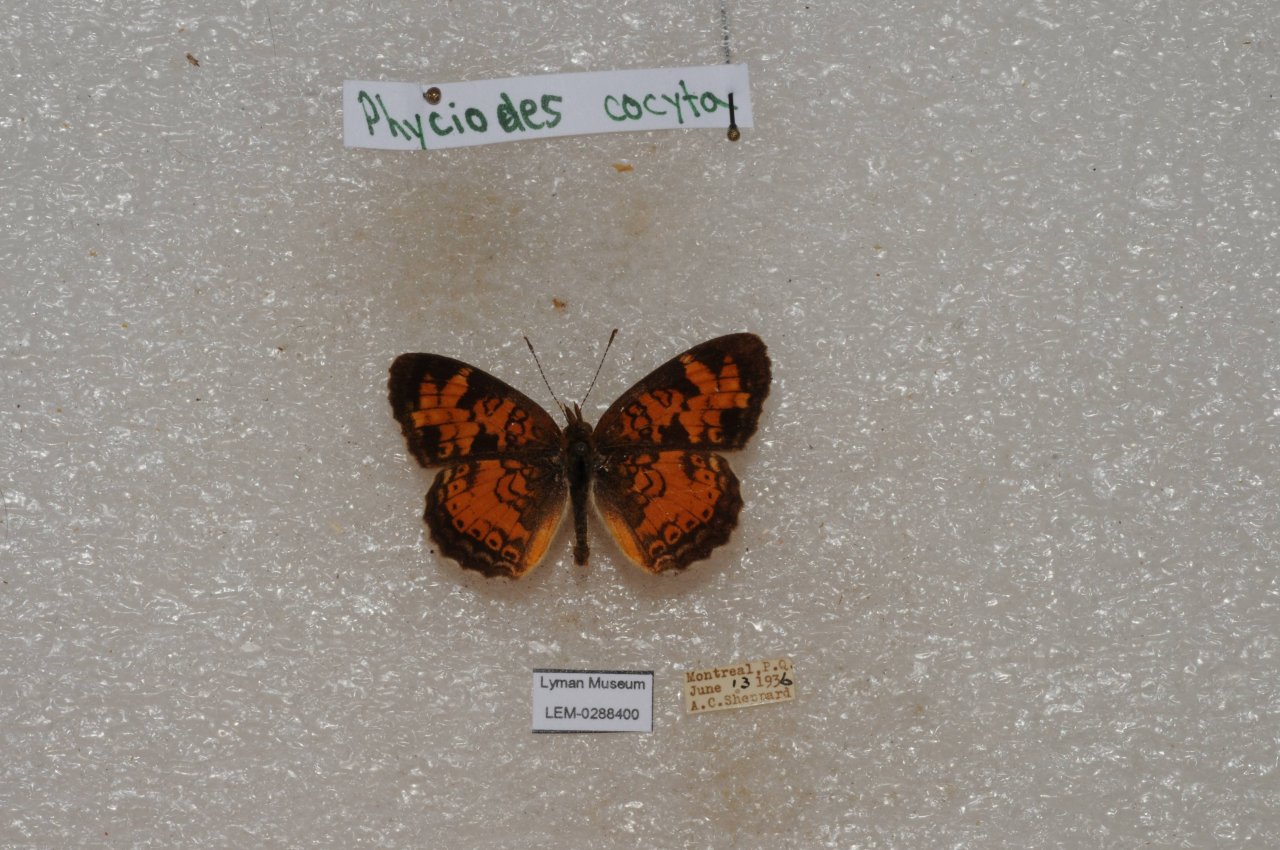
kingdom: Animalia
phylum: Arthropoda
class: Insecta
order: Lepidoptera
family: Nymphalidae
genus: Phyciodes
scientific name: Phyciodes tharos
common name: Northern Crescent
